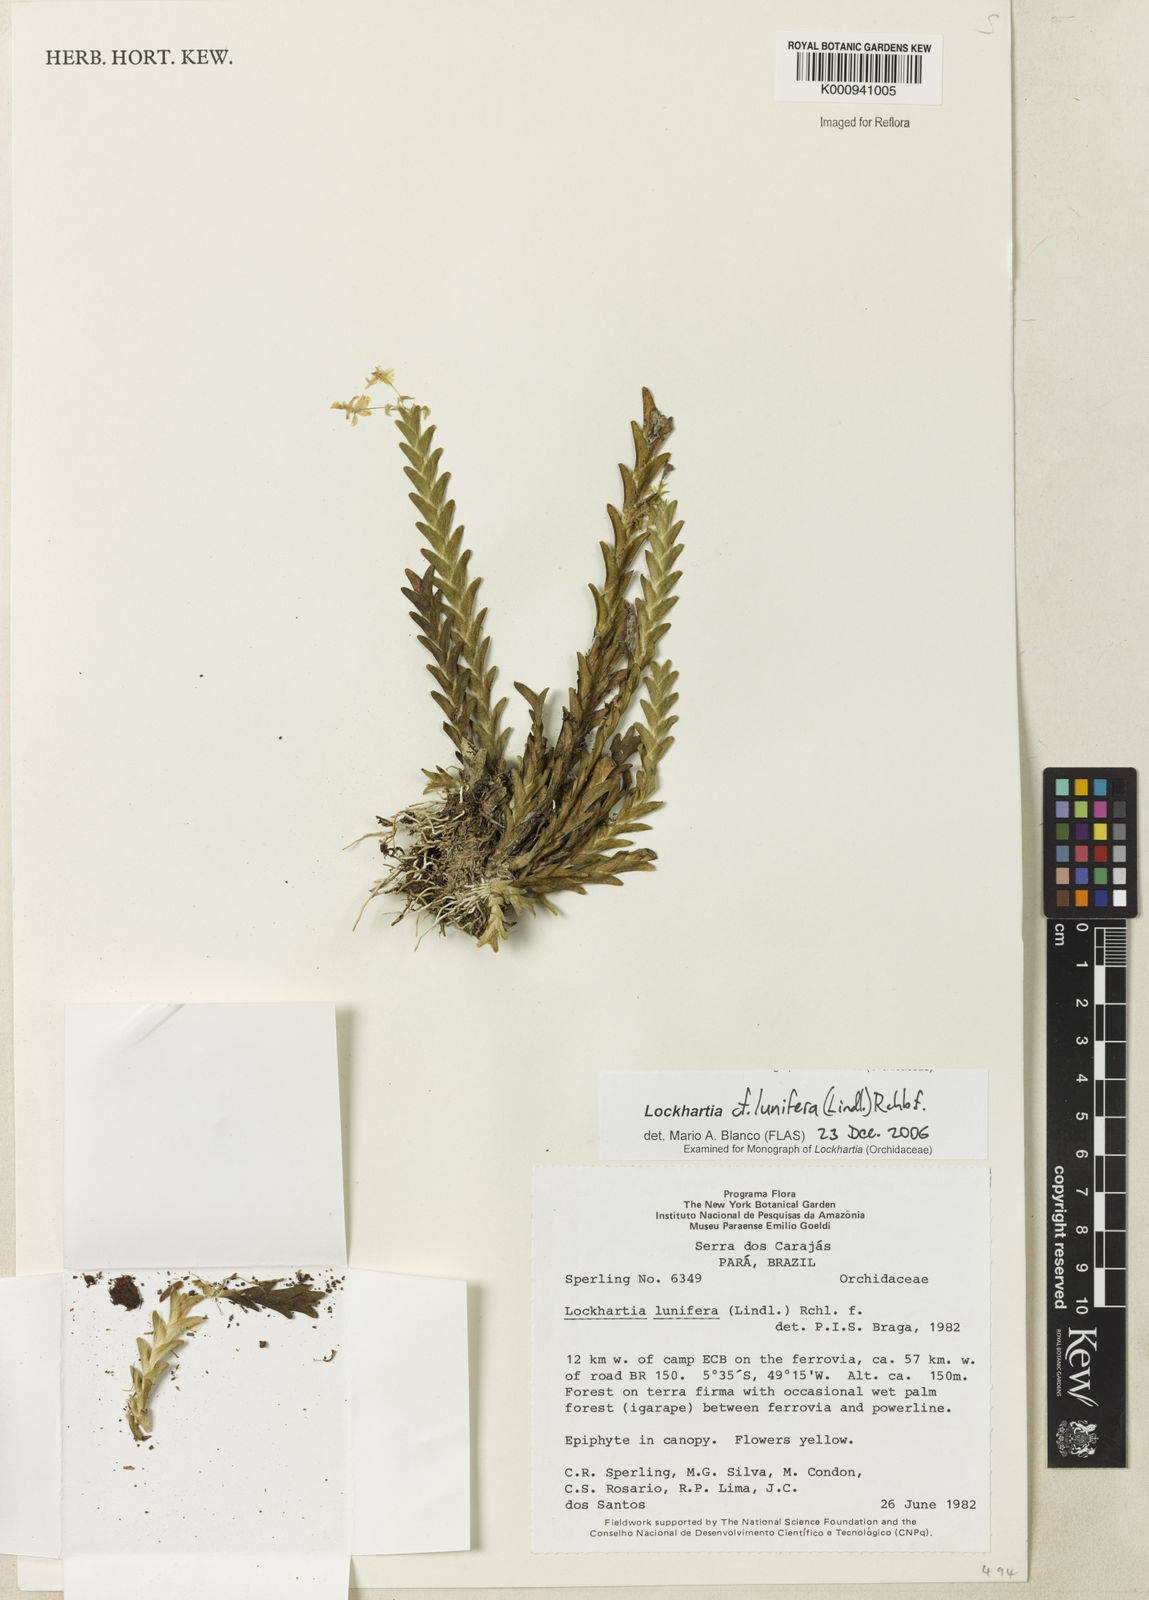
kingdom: Plantae
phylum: Tracheophyta
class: Liliopsida
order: Asparagales
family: Orchidaceae
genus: Lockhartia
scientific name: Lockhartia lunifera
